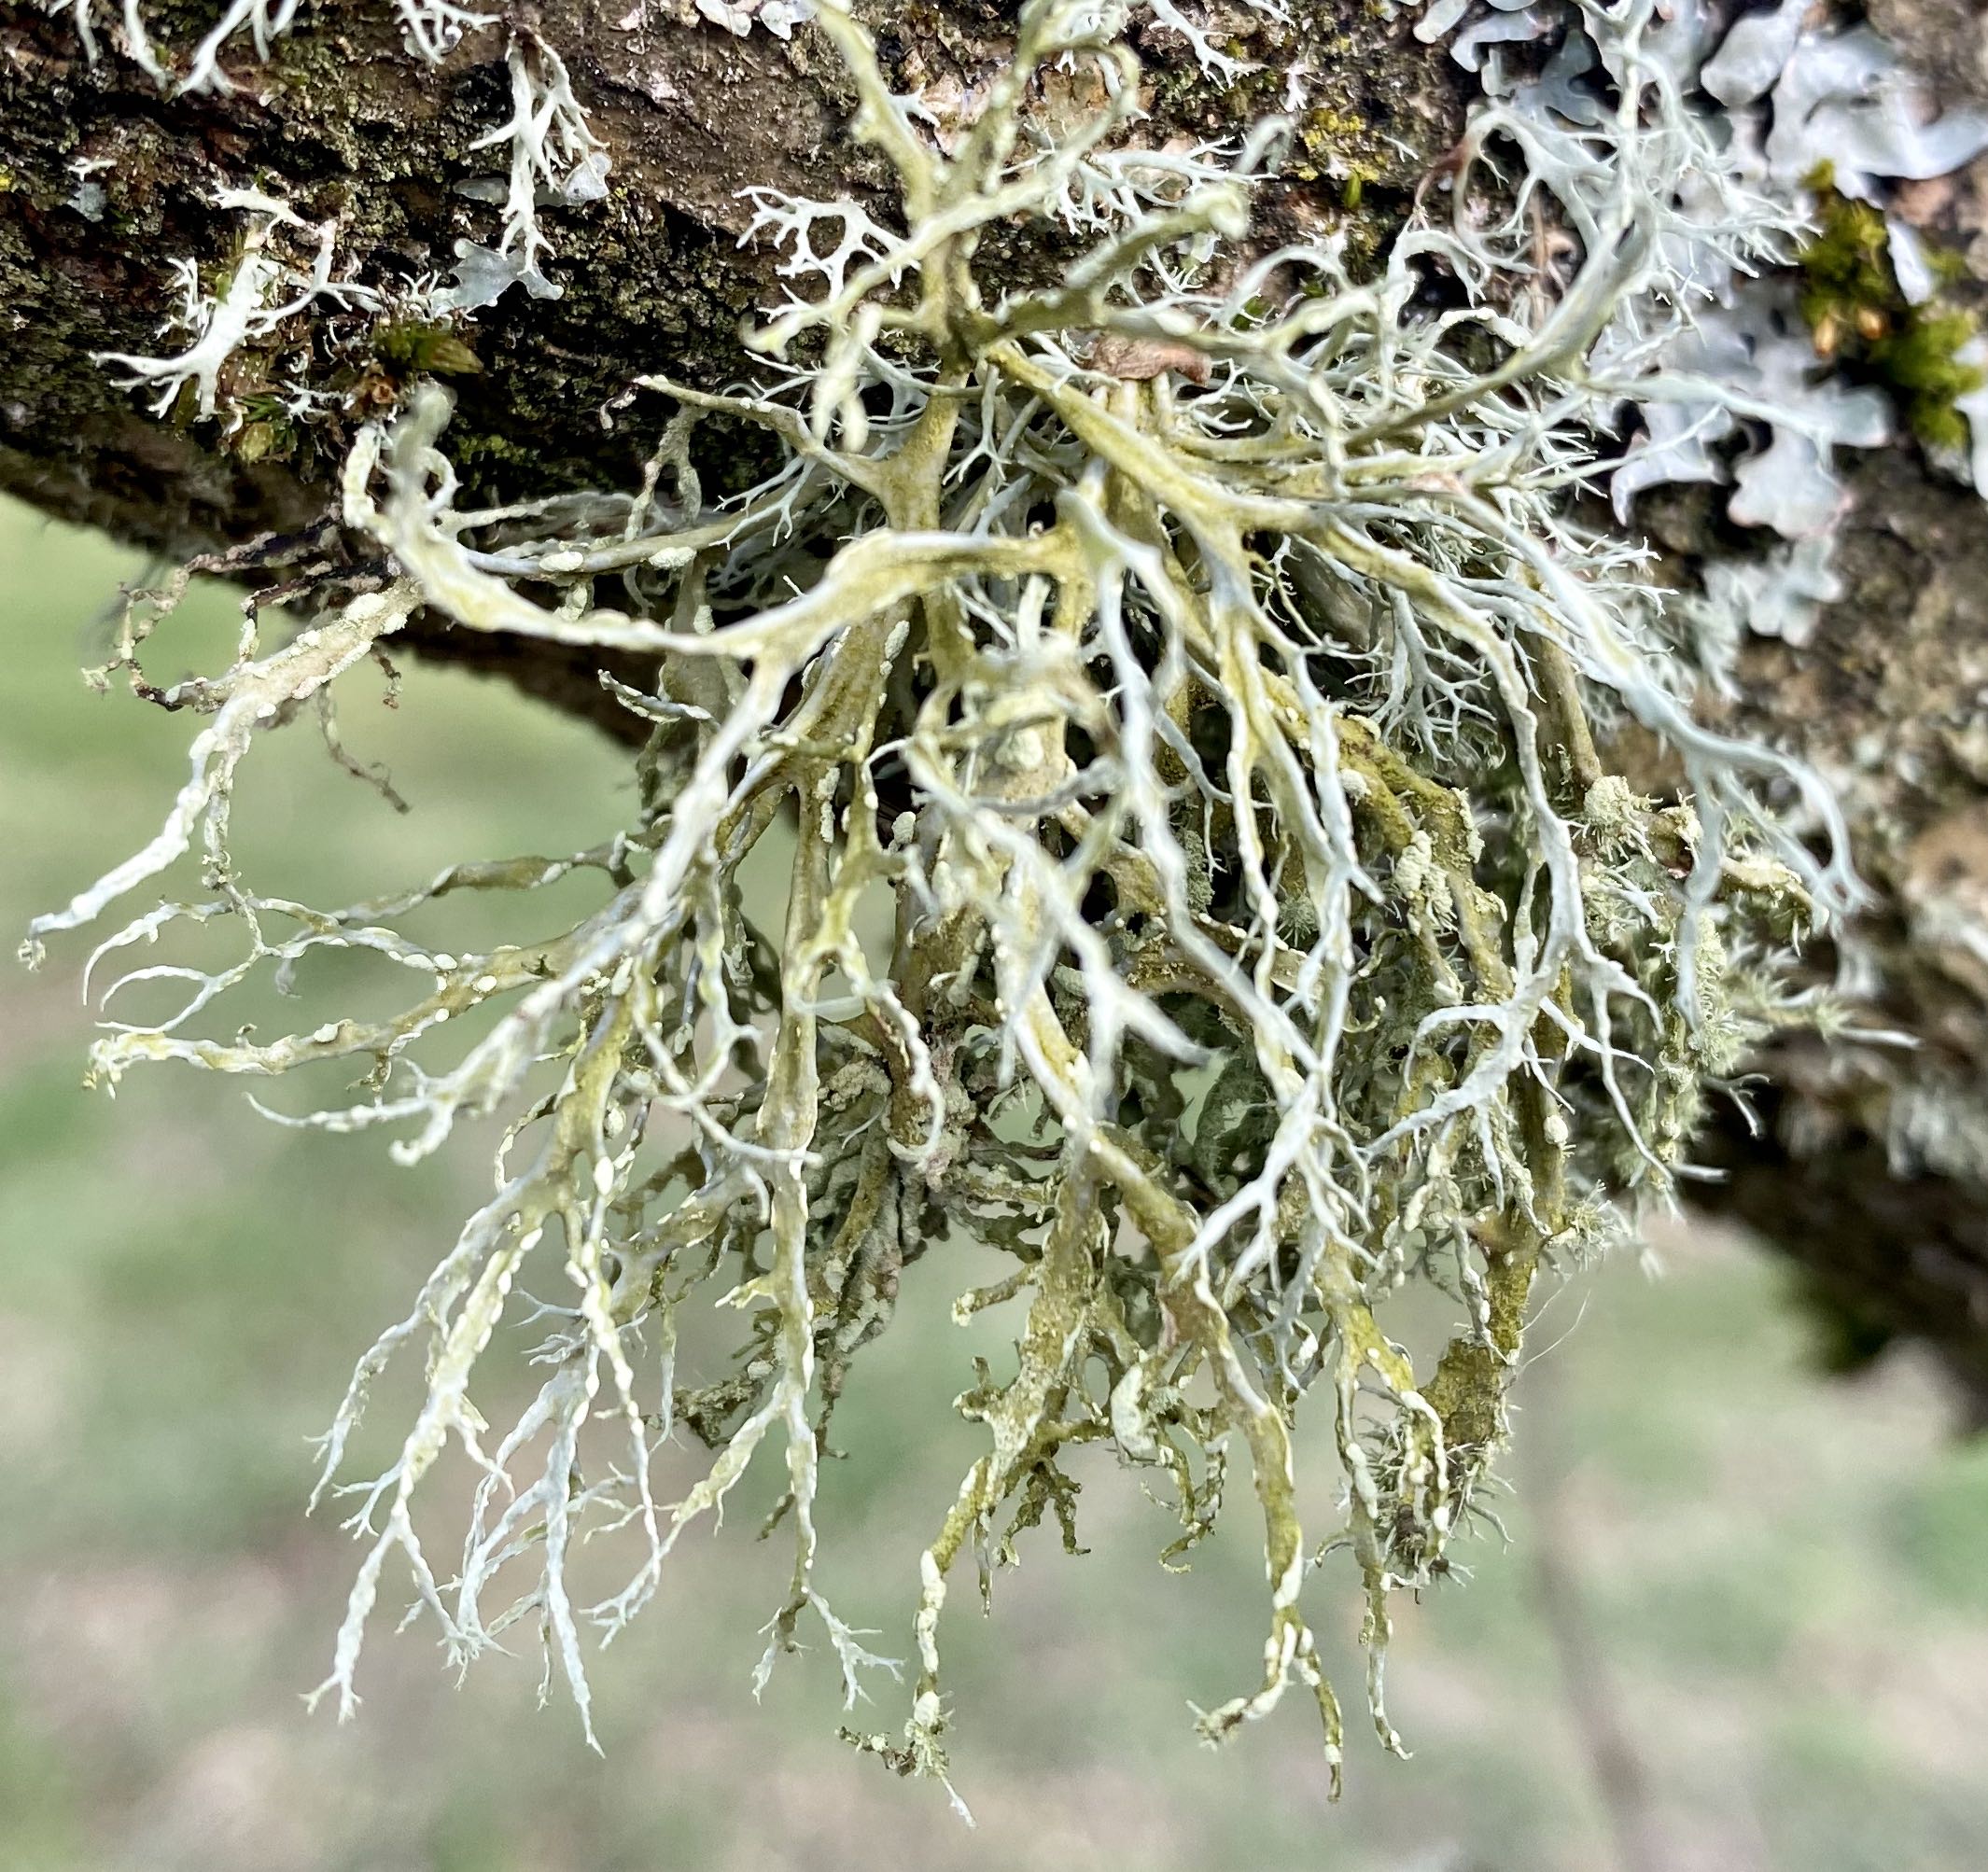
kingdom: Fungi
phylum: Ascomycota
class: Lecanoromycetes
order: Lecanorales
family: Ramalinaceae
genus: Ramalina
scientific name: Ramalina farinacea
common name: melet grenlav
